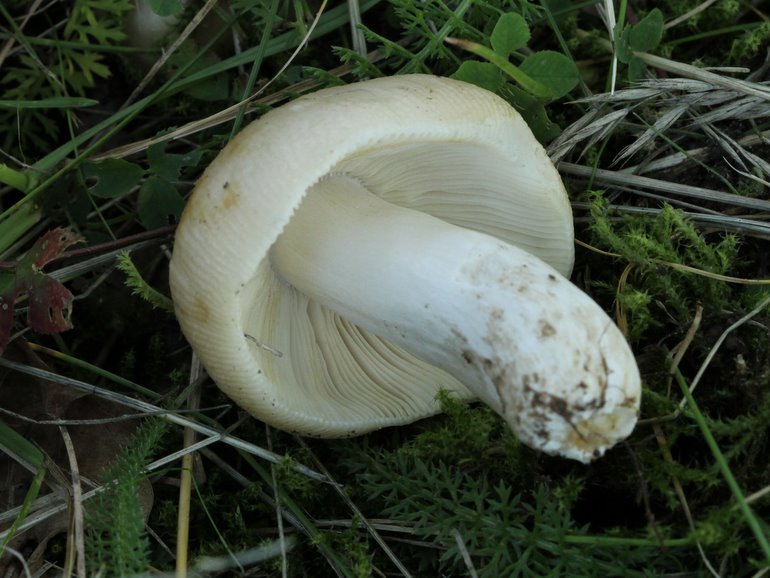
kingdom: Fungi
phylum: Basidiomycota
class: Agaricomycetes
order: Russulales
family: Russulaceae
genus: Russula
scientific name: Russula recondita
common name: mild kam-skørhat
